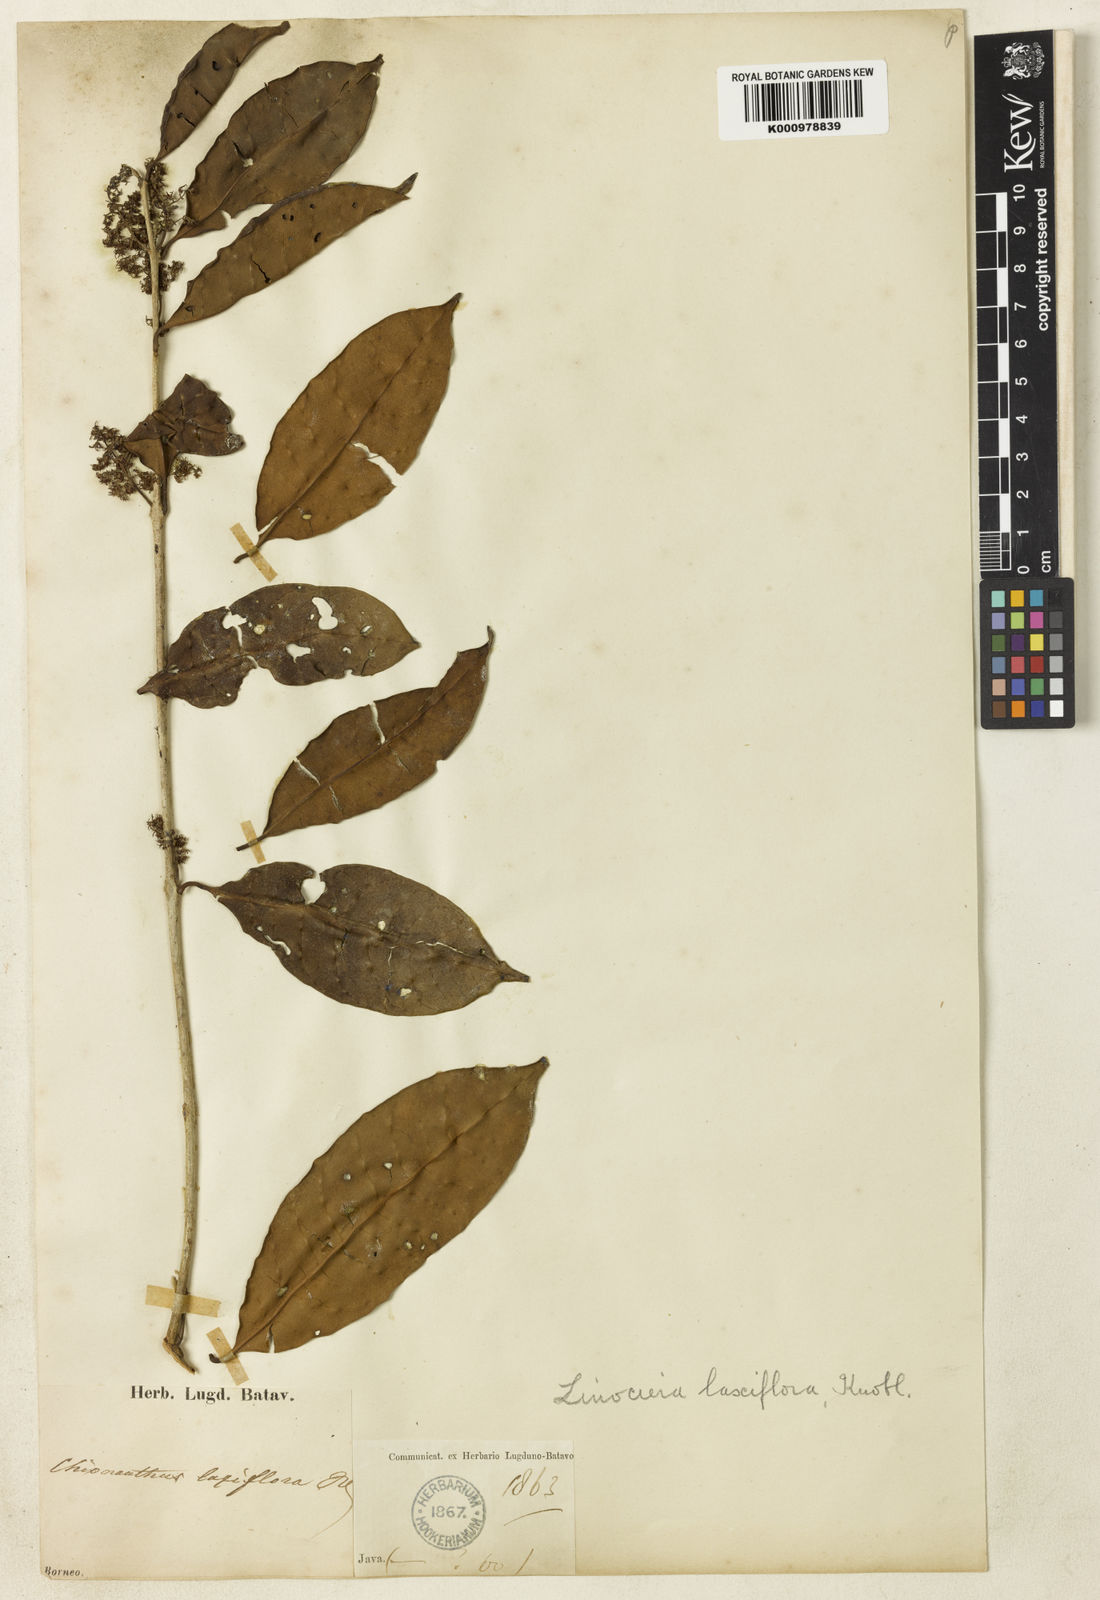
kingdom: Plantae
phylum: Tracheophyta
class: Magnoliopsida
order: Lamiales
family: Oleaceae
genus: Chionanthus
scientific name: Chionanthus polygamus
